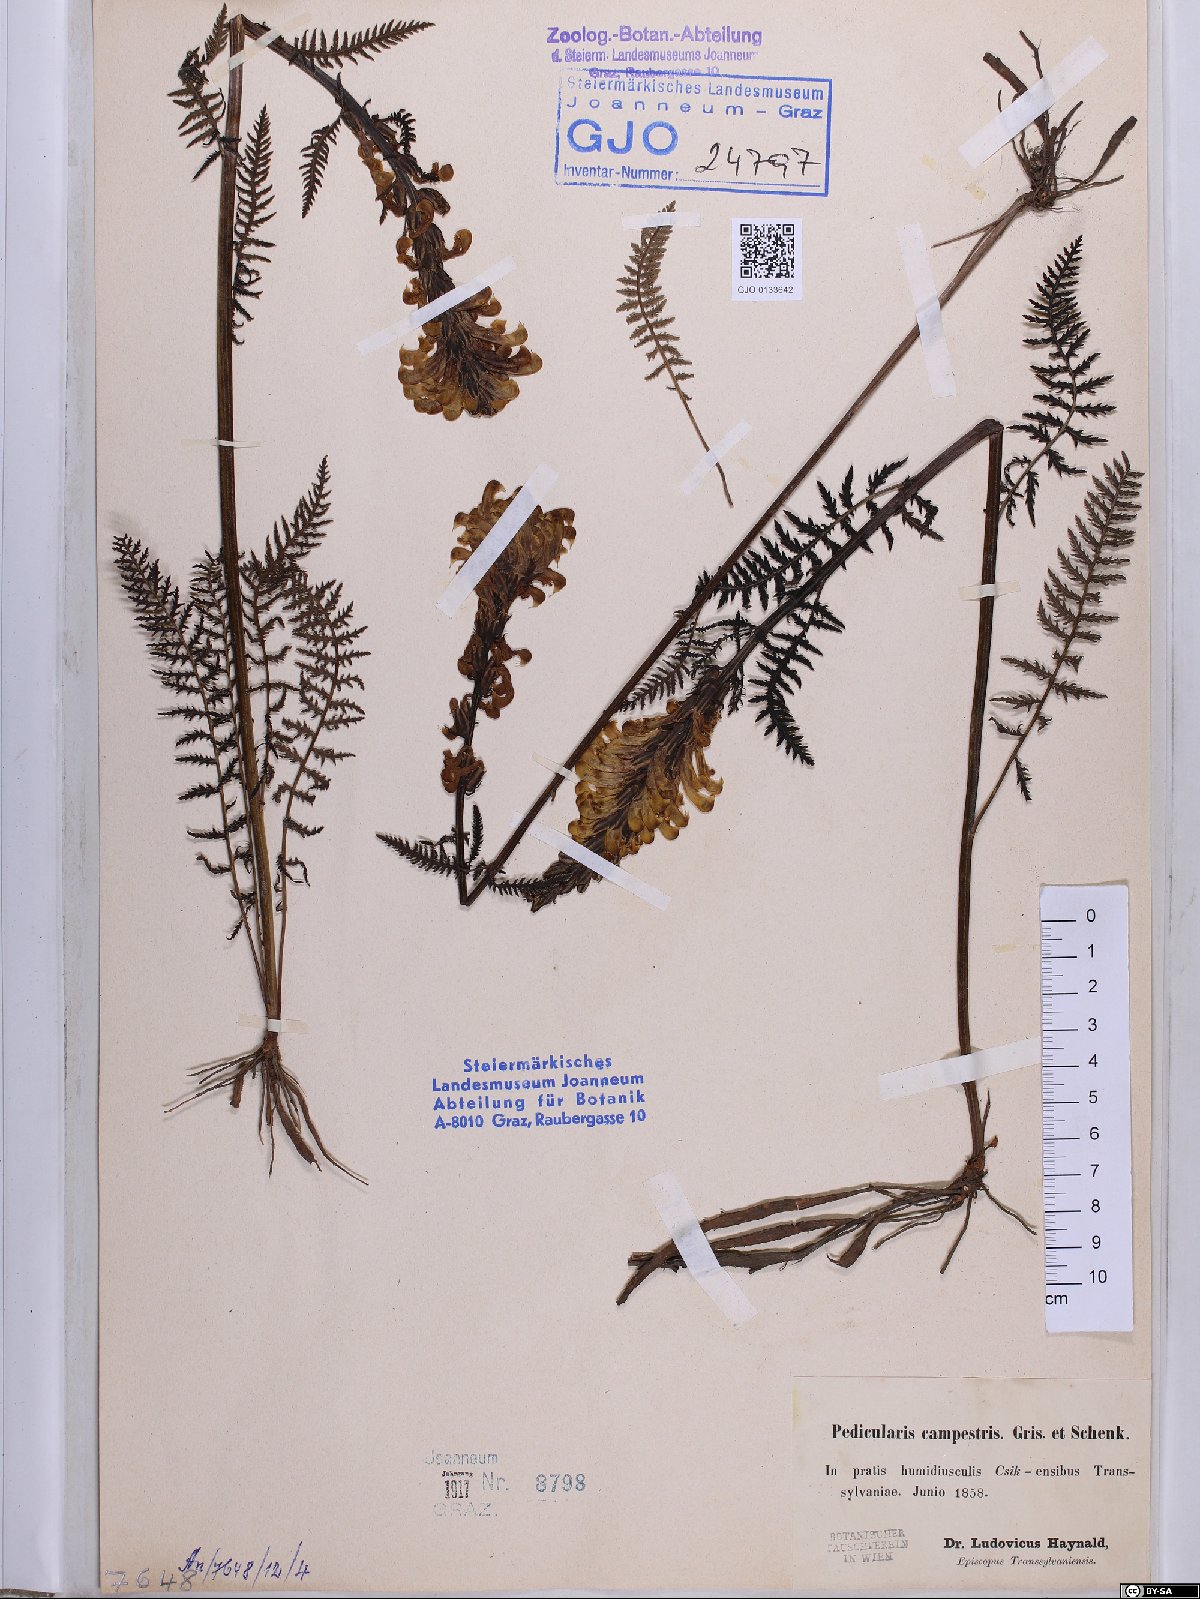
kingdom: Plantae
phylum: Tracheophyta
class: Magnoliopsida
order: Lamiales
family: Orobanchaceae
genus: Pedicularis
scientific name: Pedicularis comosa
